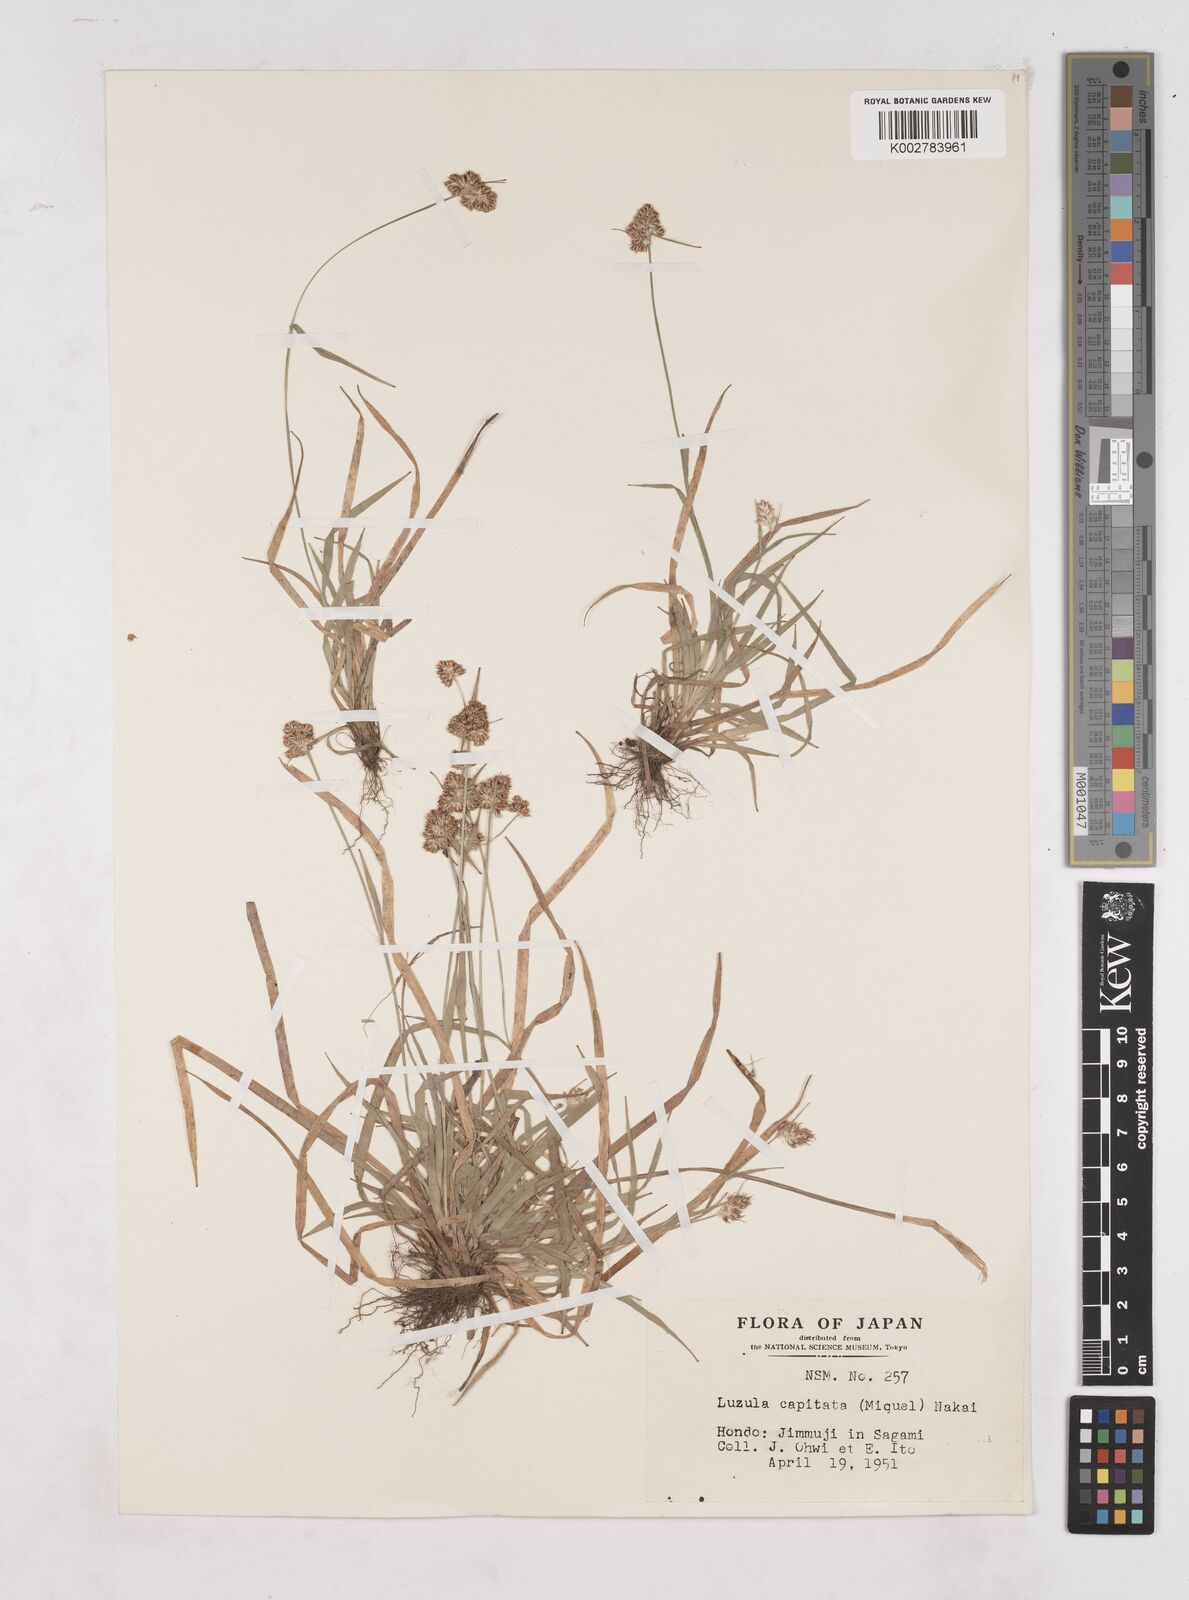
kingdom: Plantae
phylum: Tracheophyta
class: Liliopsida
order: Poales
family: Juncaceae
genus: Luzula
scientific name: Luzula capitata
